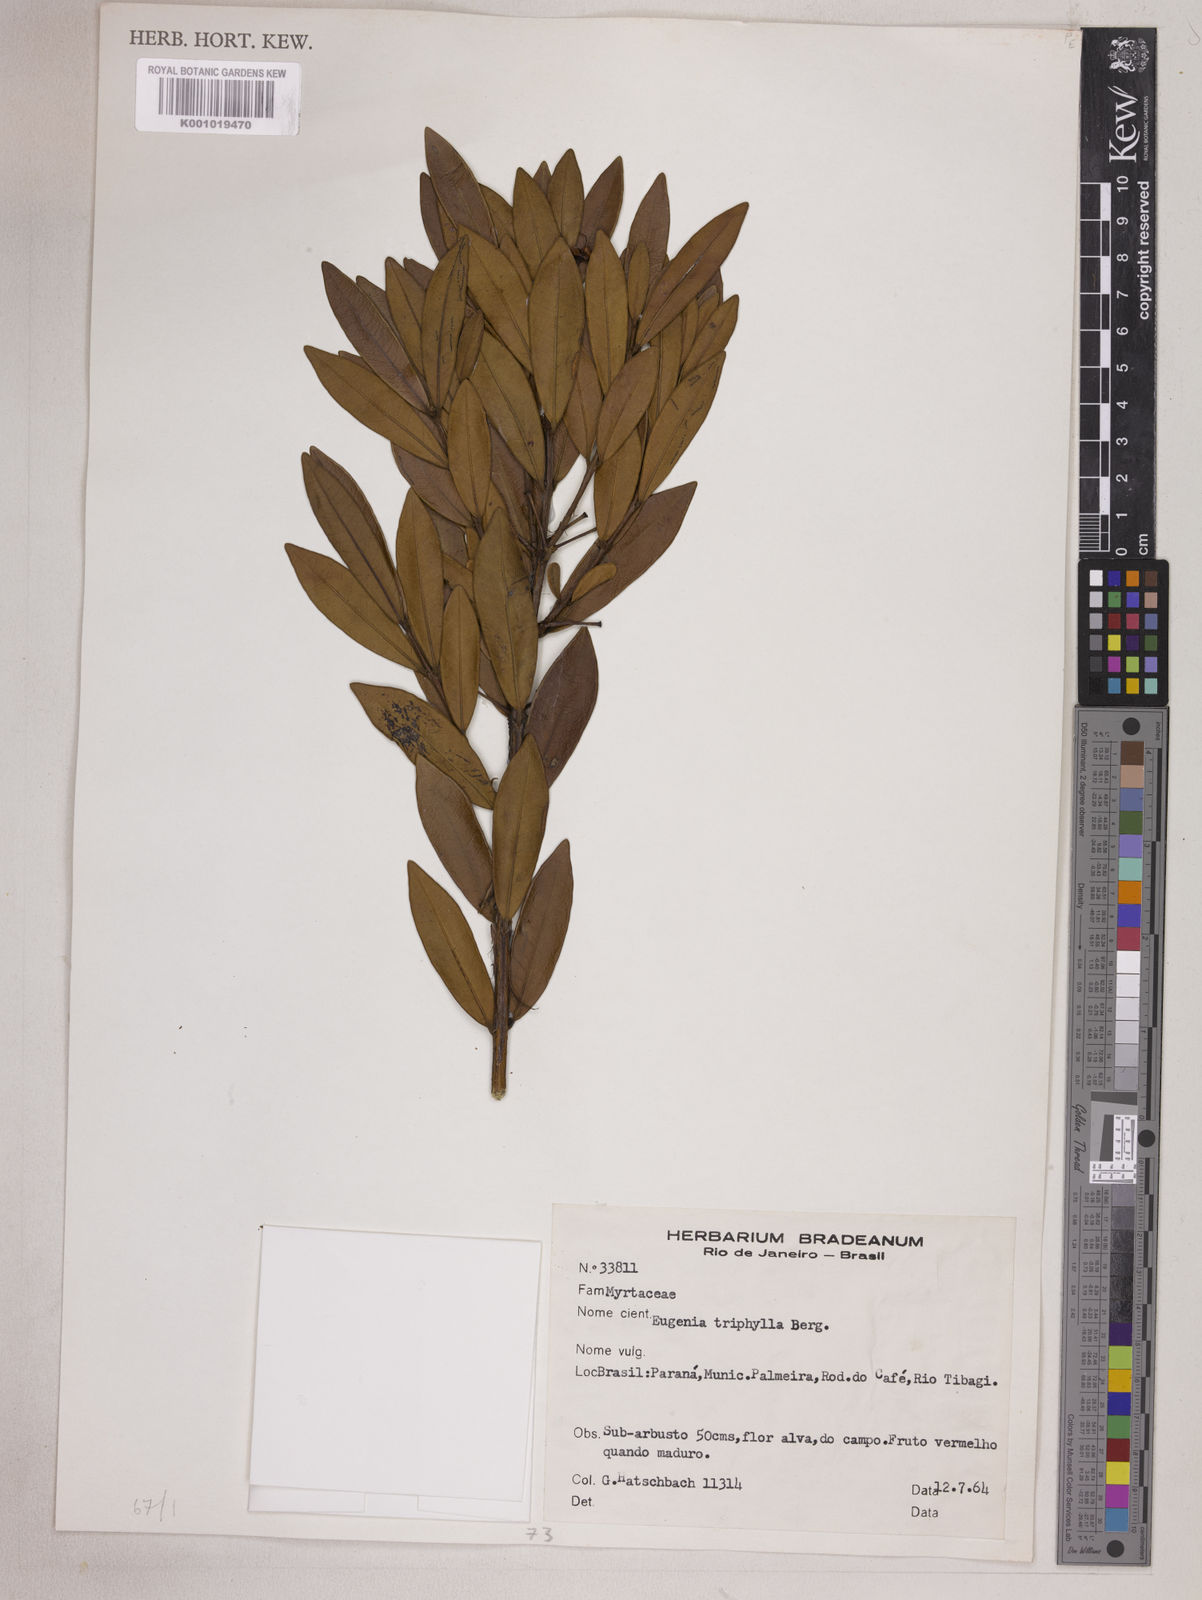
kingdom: Plantae
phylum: Tracheophyta
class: Magnoliopsida
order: Myrtales
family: Myrtaceae
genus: Eugenia
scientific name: Eugenia punicifolia
